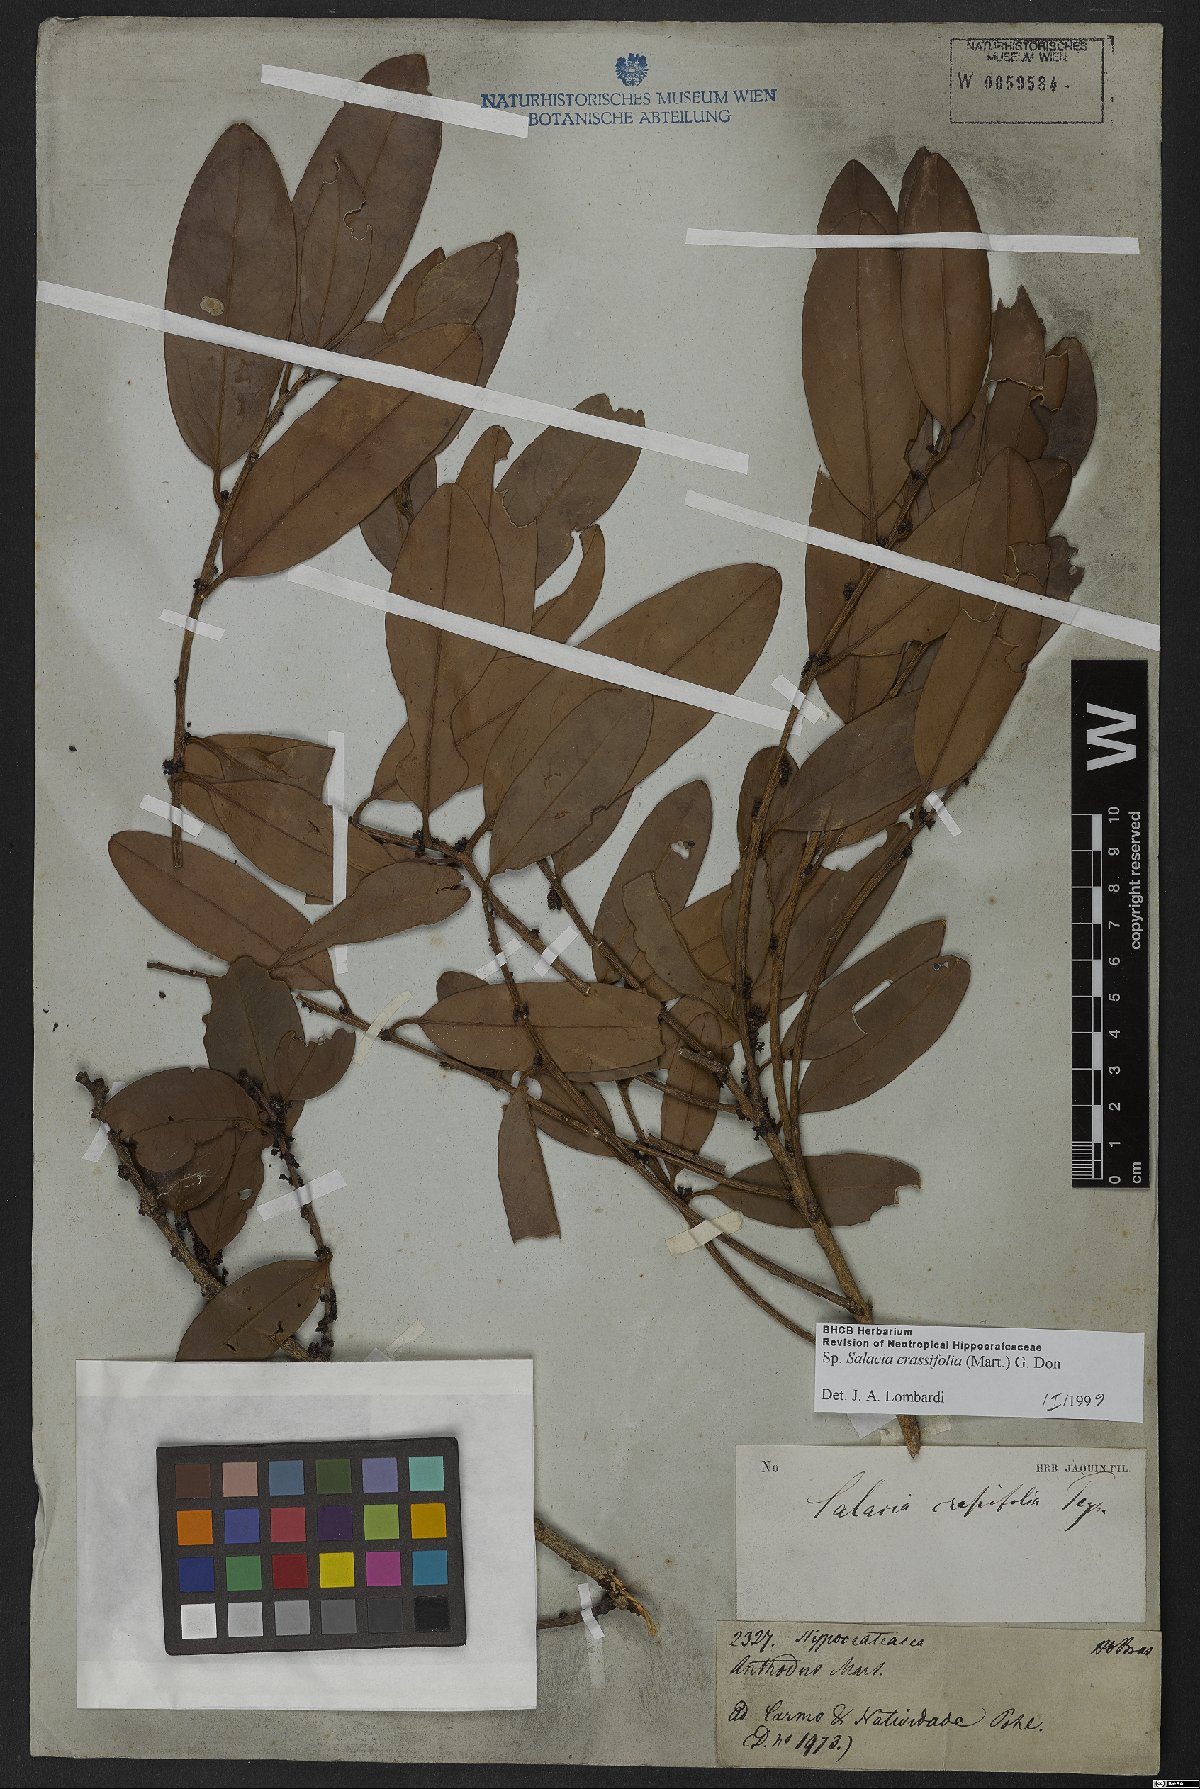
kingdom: Plantae
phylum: Tracheophyta
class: Magnoliopsida
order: Celastrales
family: Celastraceae
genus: Salacia
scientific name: Salacia crassifolia
